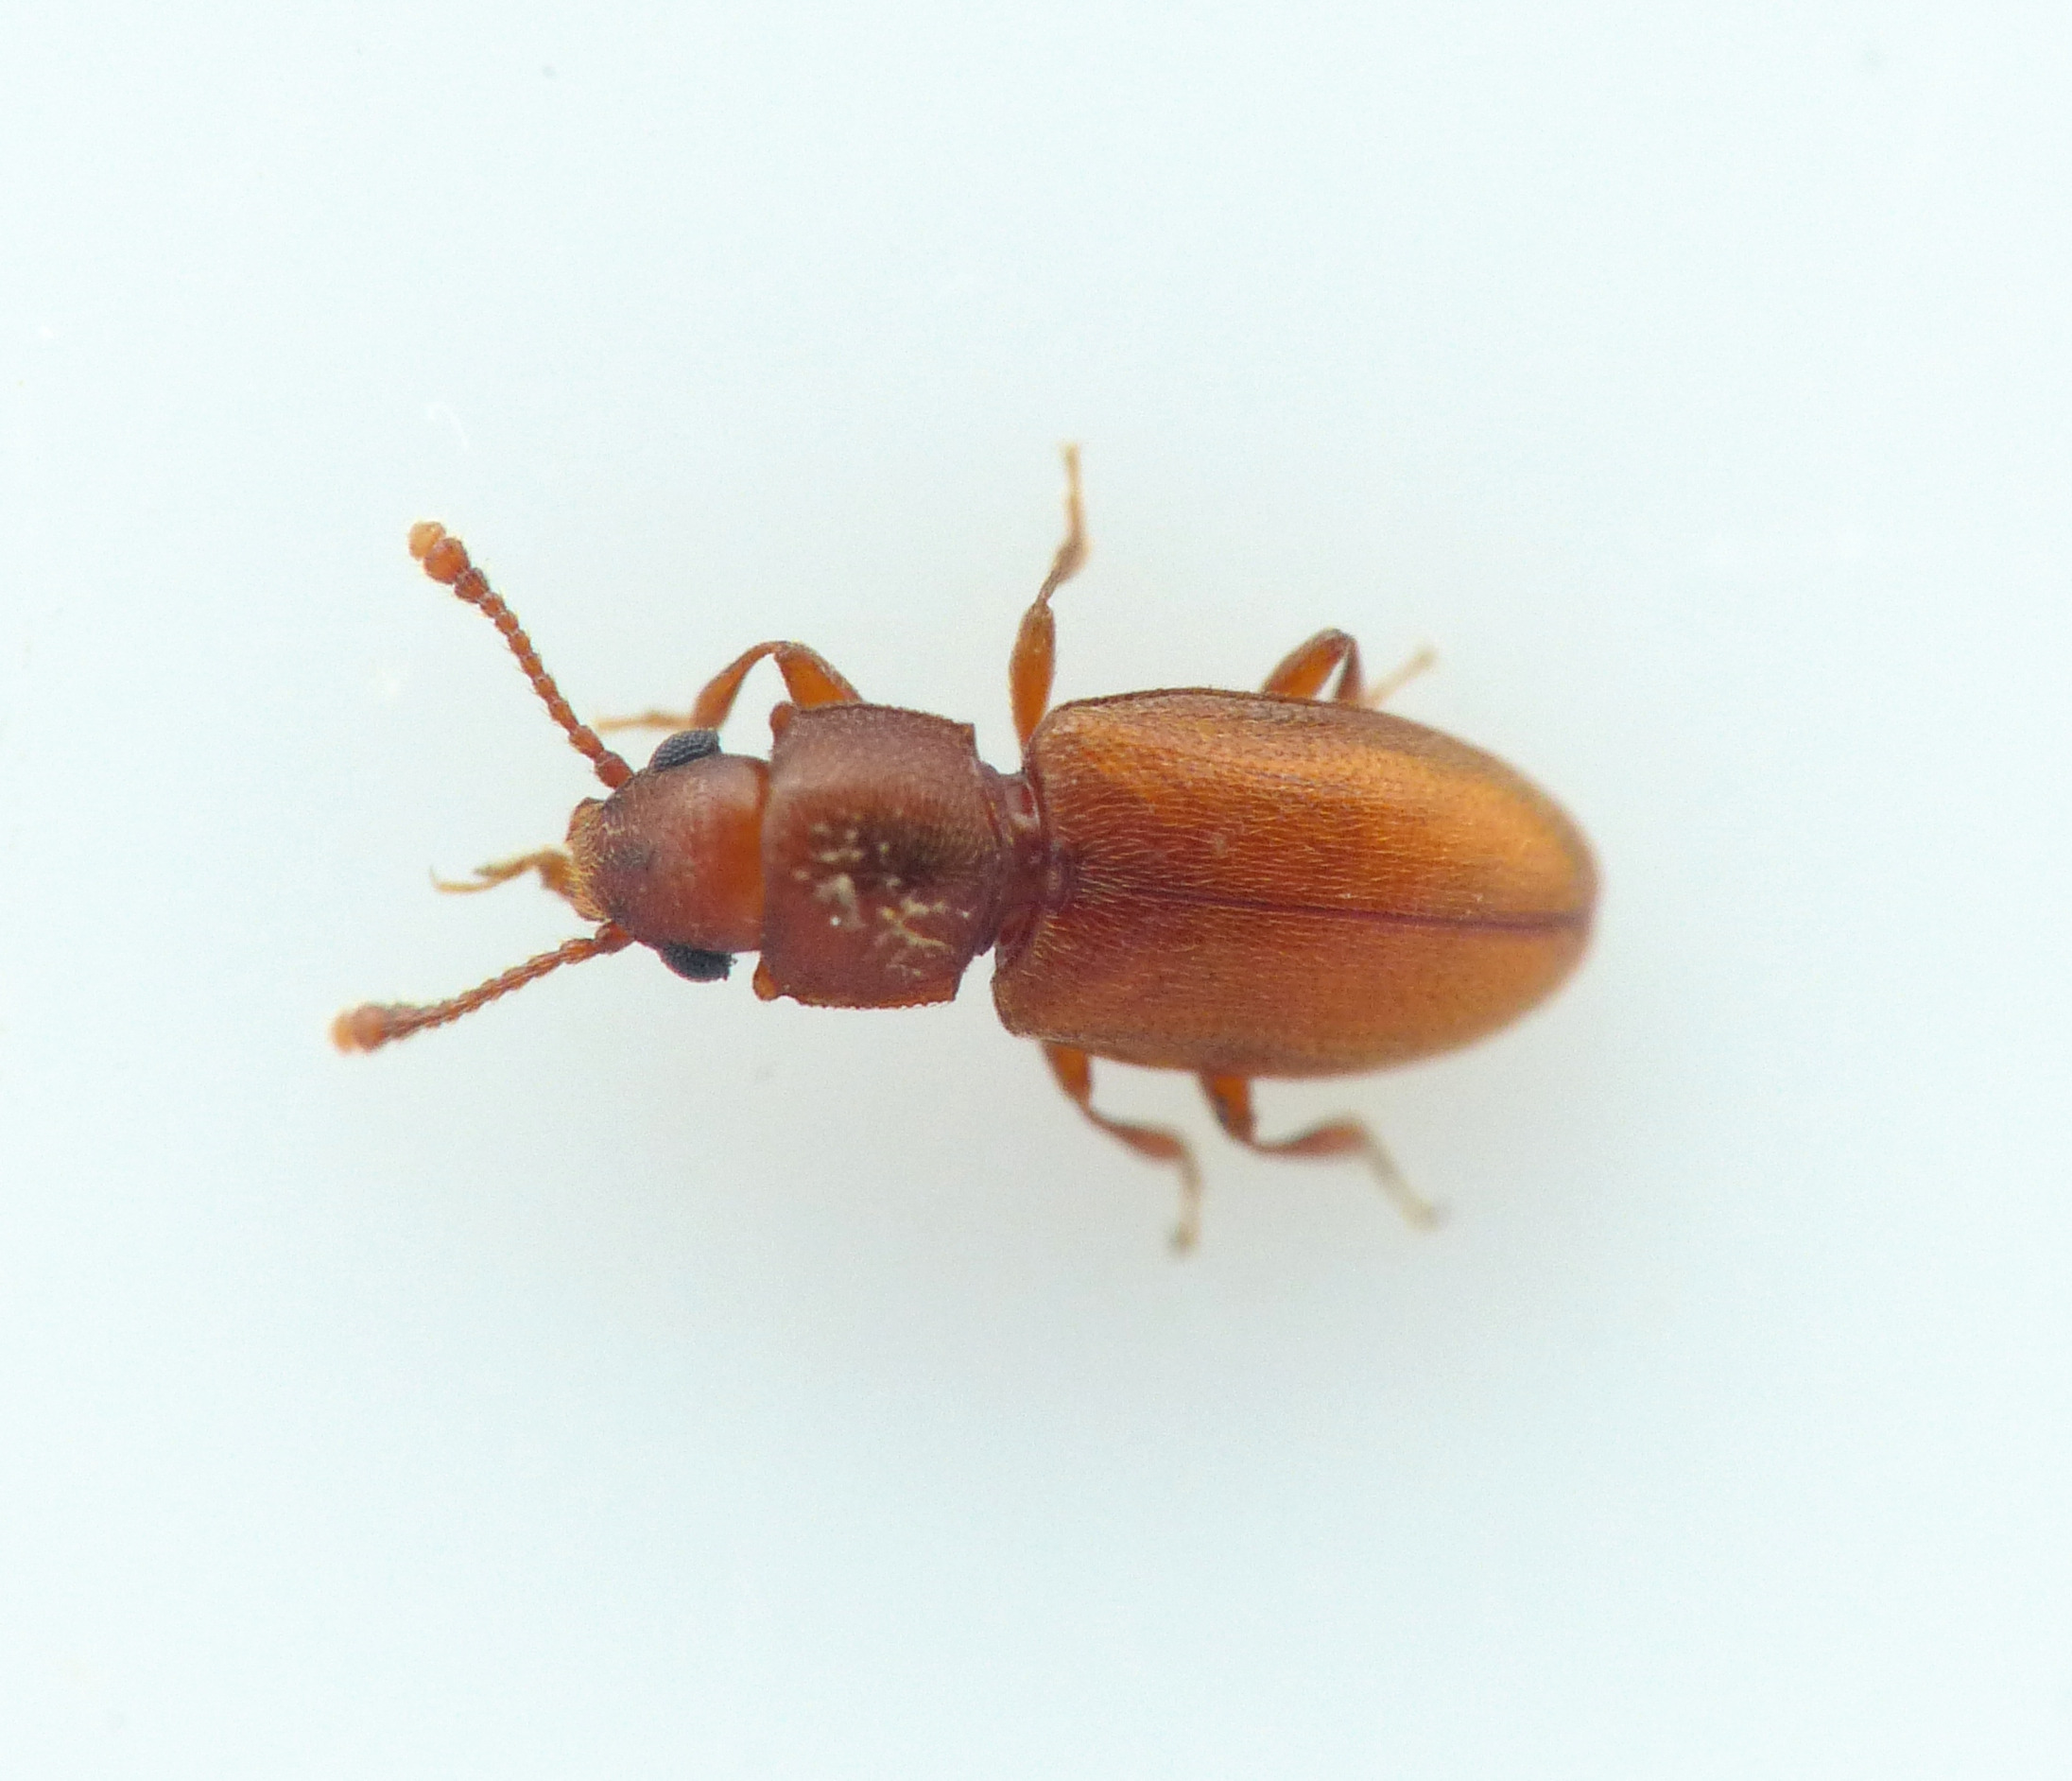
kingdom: Animalia
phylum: Arthropoda
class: Insecta
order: Coleoptera
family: Silvanidae
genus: Ahasverus
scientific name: Ahasverus advena
